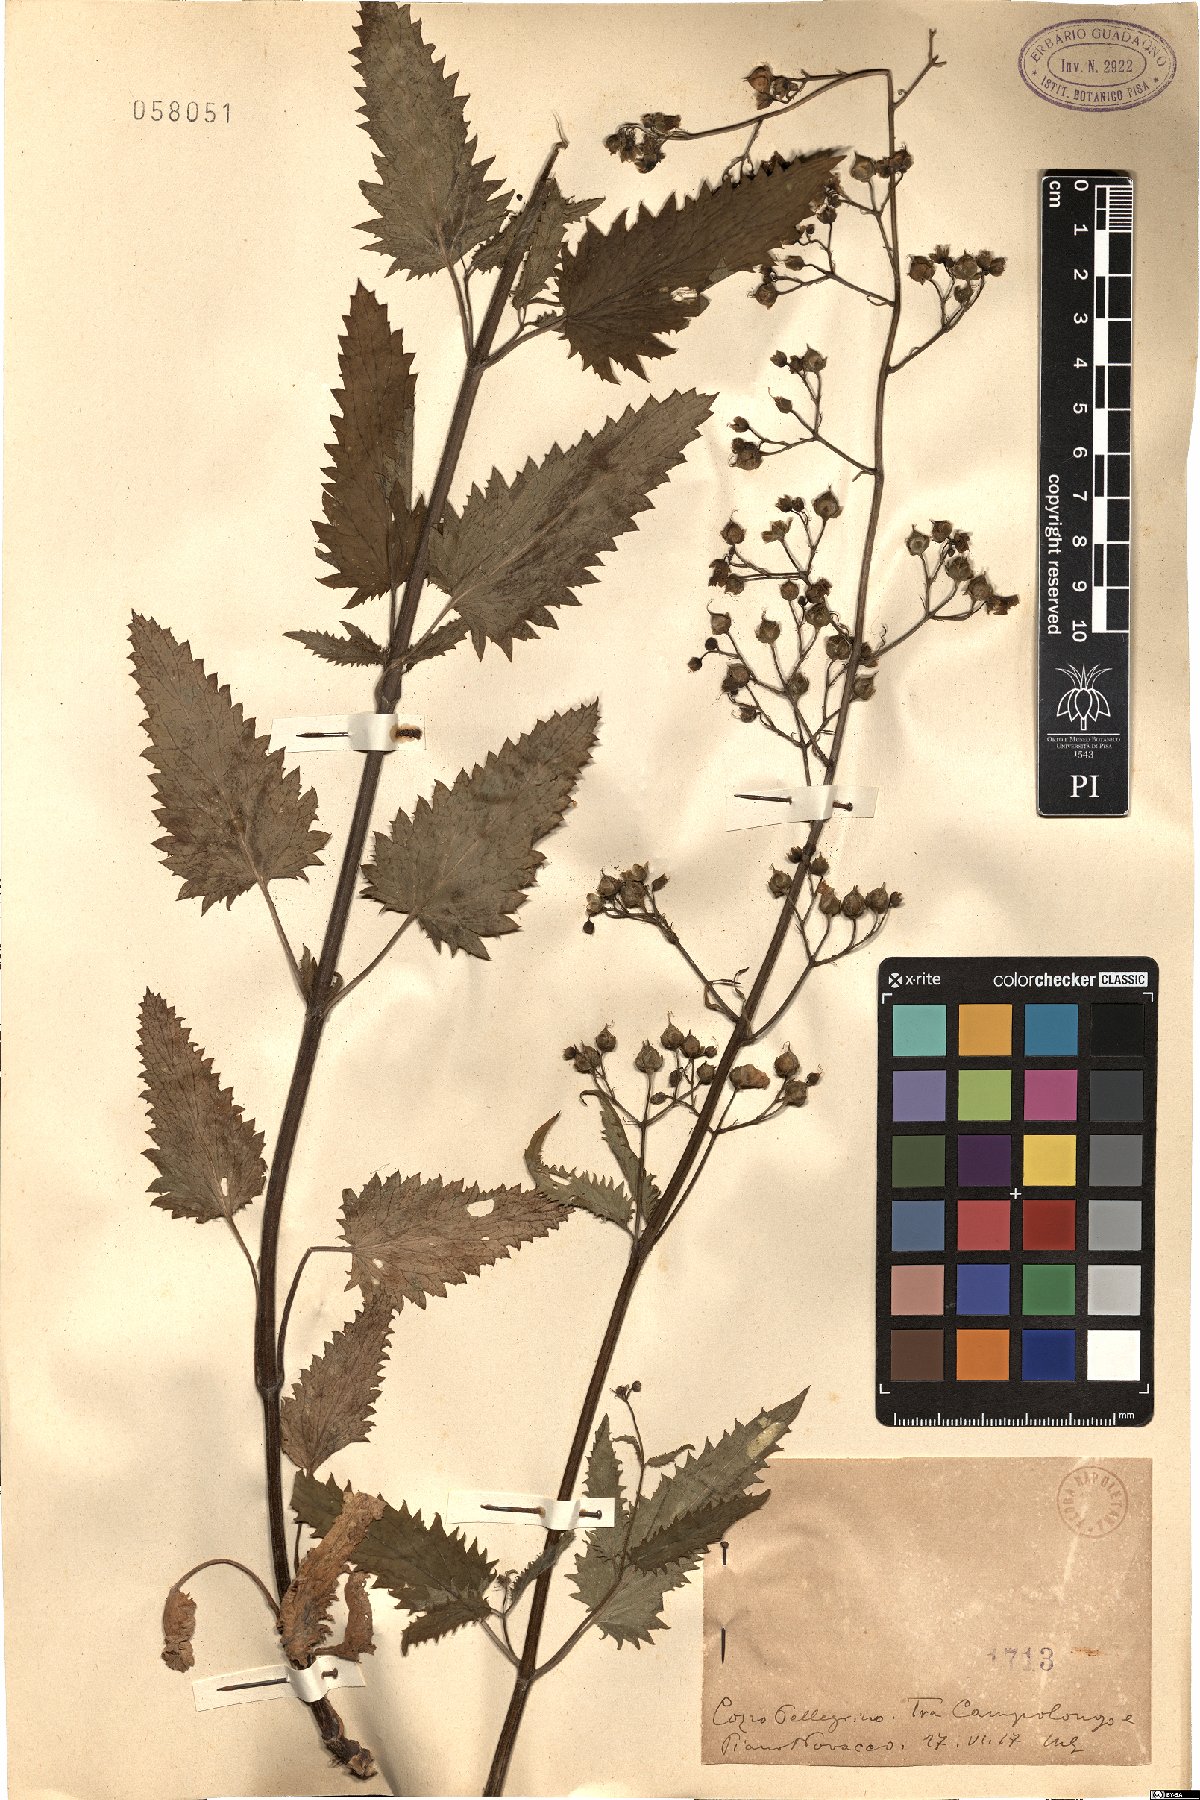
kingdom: Plantae
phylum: Tracheophyta
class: Magnoliopsida
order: Lamiales
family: Scrophulariaceae
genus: Scrophularia
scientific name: Scrophularia
